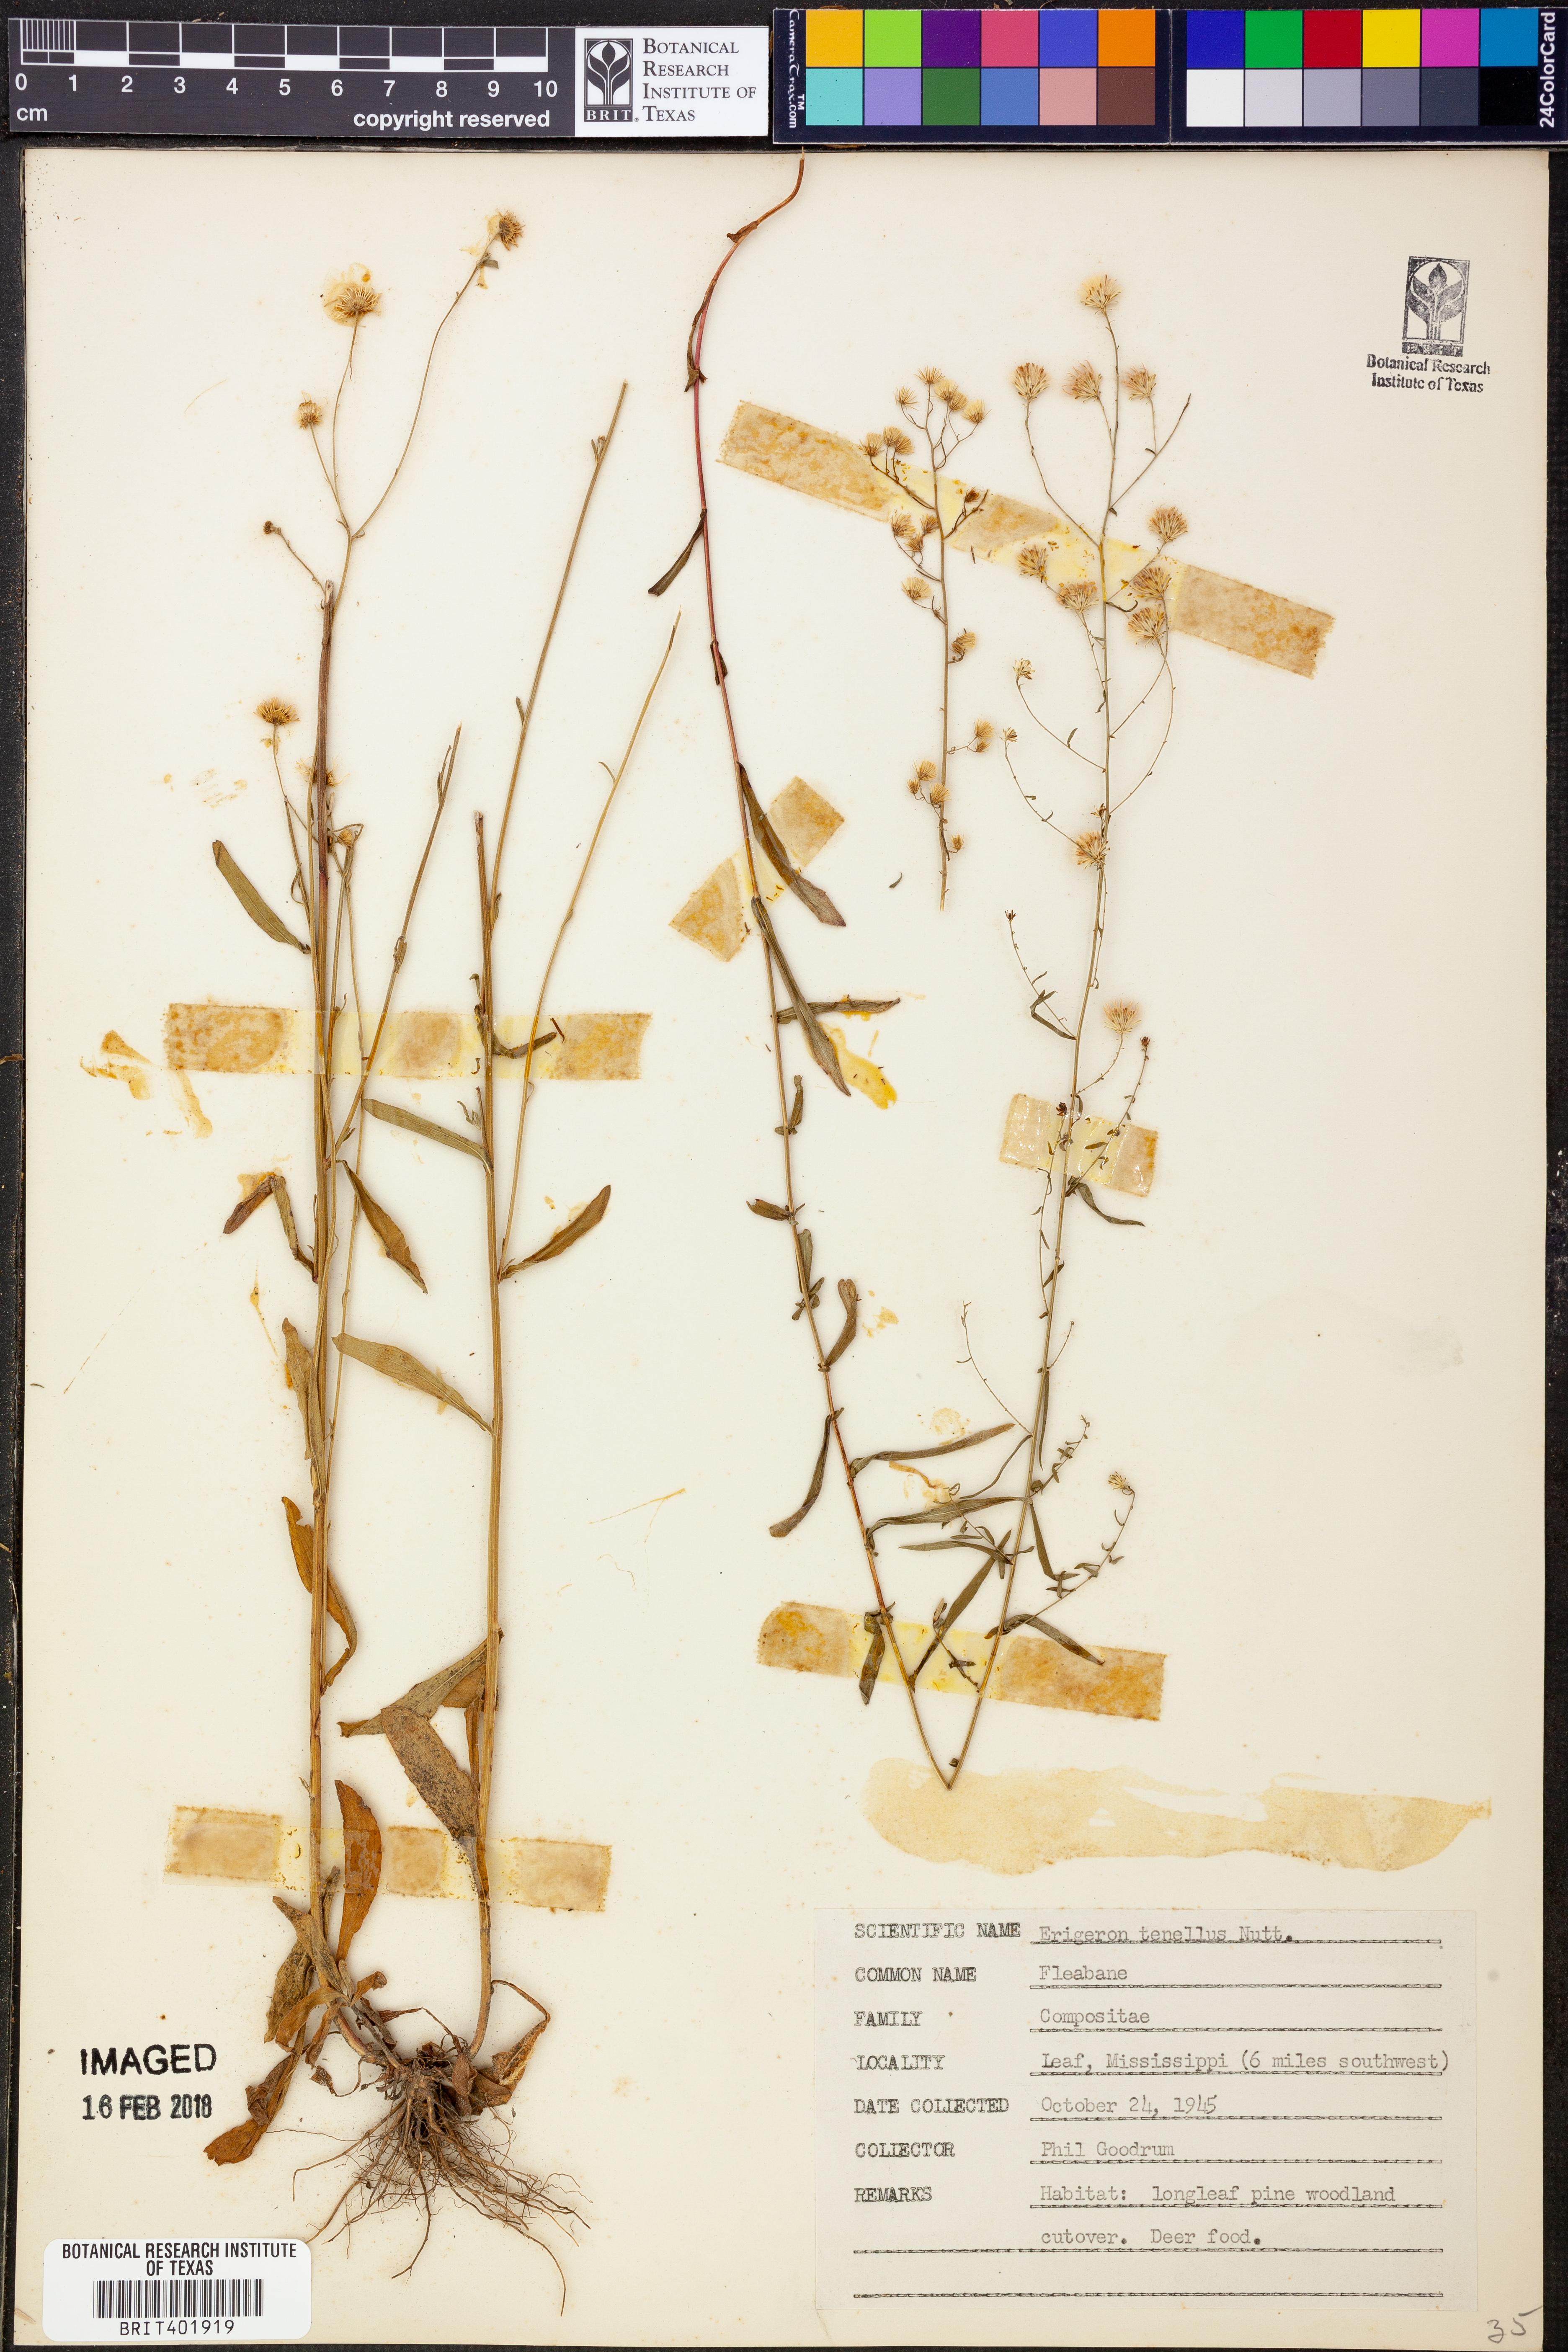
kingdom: Plantae
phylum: Tracheophyta
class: Magnoliopsida
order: Asterales
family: Asteraceae
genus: Erigeron
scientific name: Erigeron tenellus
